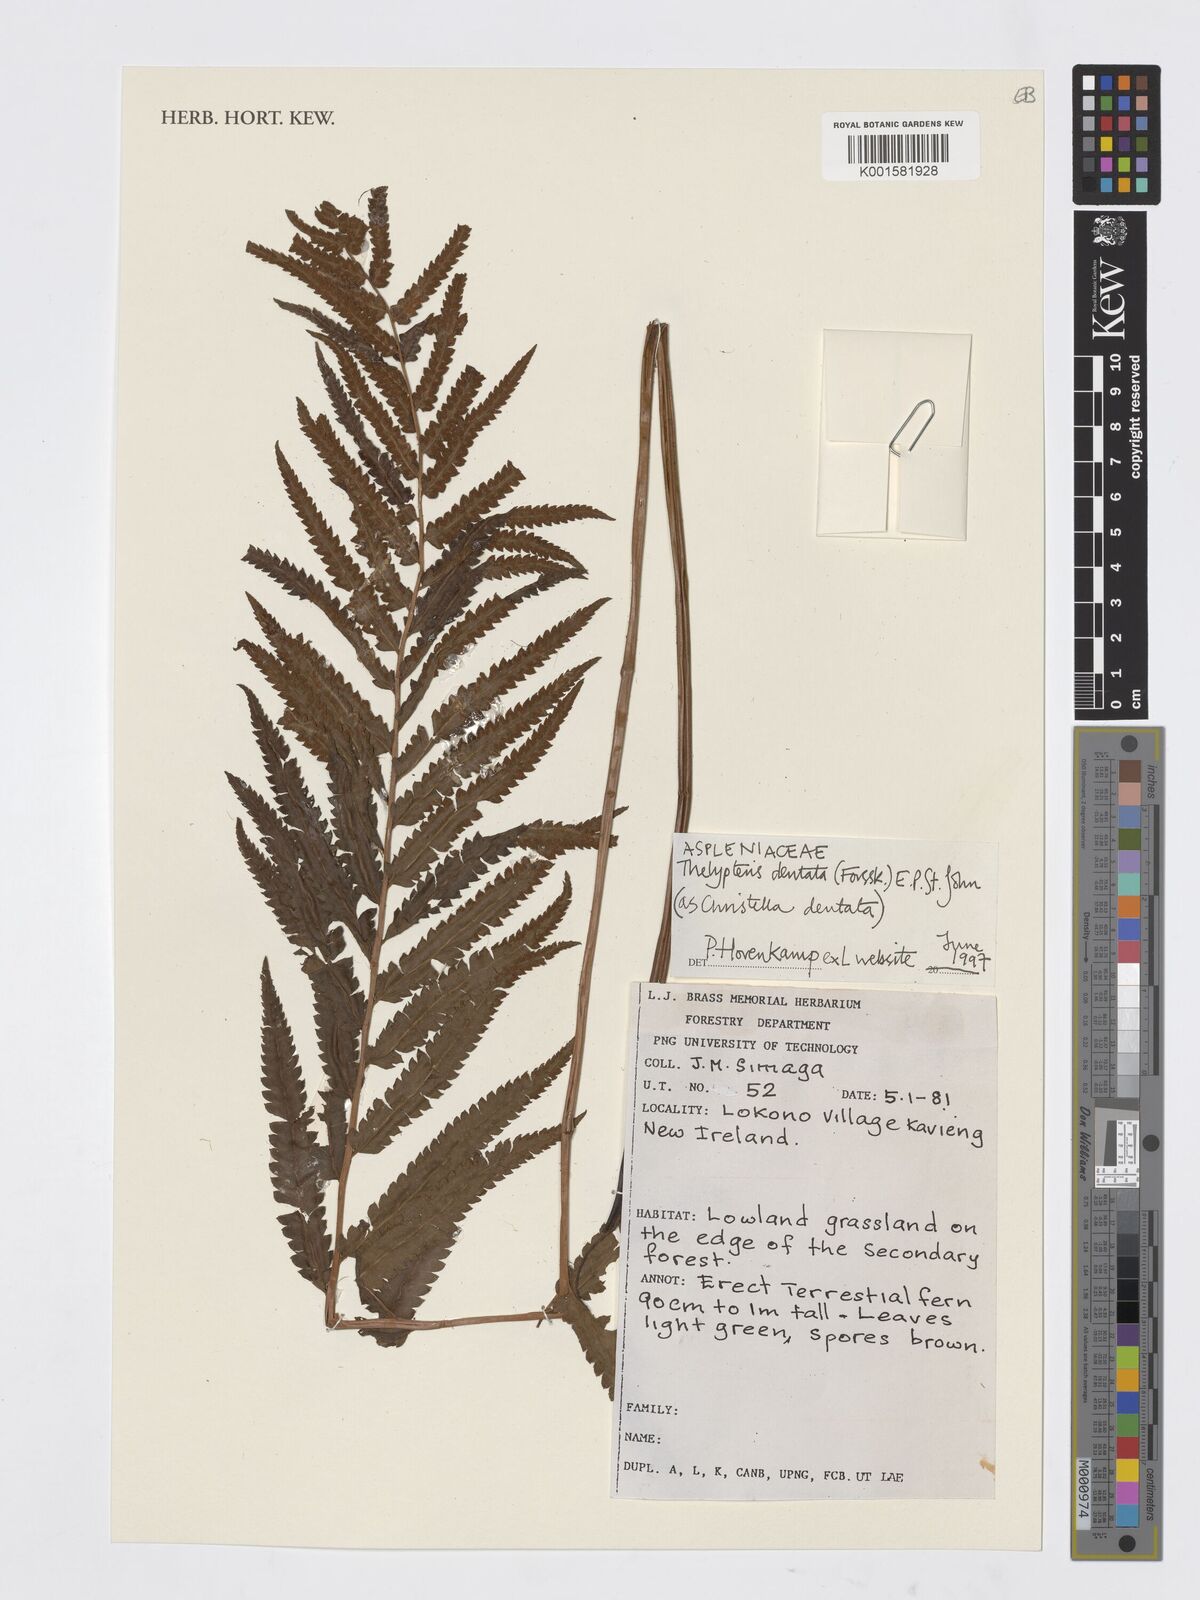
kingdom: Plantae
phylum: Tracheophyta
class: Polypodiopsida
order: Polypodiales
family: Thelypteridaceae
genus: Christella
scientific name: Christella dentata
